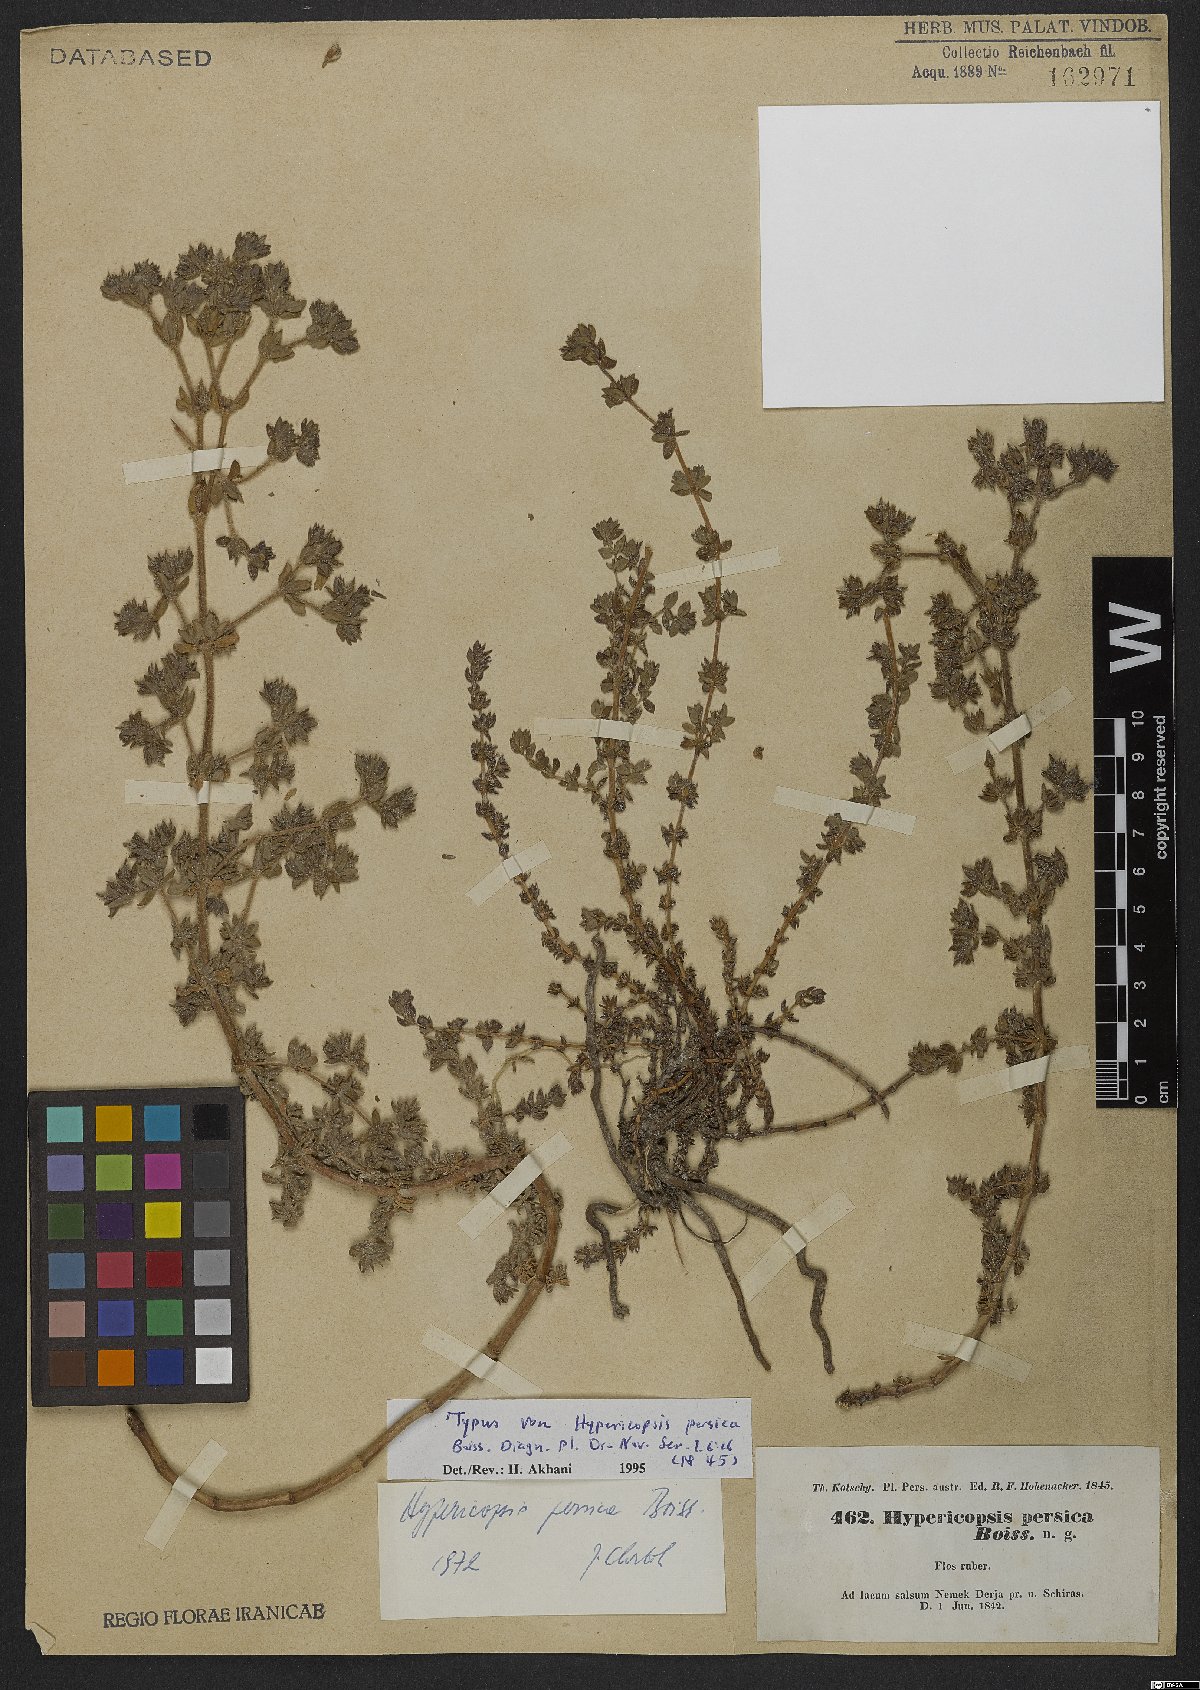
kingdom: Plantae
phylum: Tracheophyta
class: Magnoliopsida
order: Caryophyllales
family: Frankeniaceae
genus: Frankenia
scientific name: Frankenia persica
